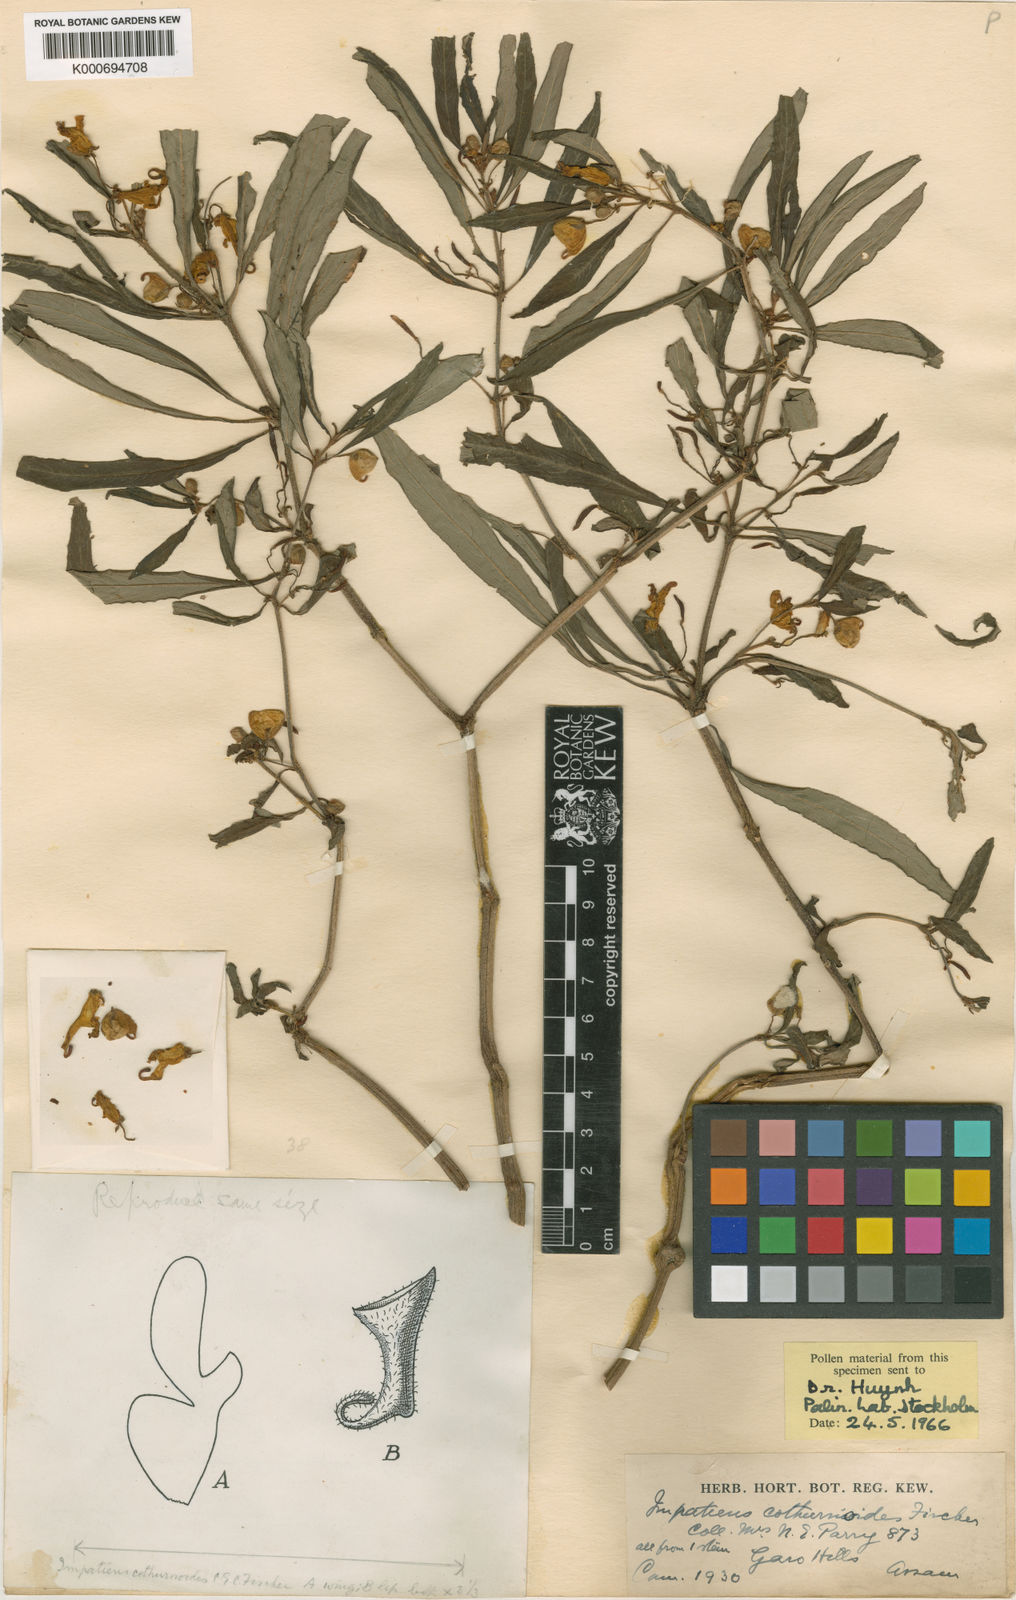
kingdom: Plantae
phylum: Tracheophyta
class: Magnoliopsida
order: Ericales
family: Balsaminaceae
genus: Impatiens
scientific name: Impatiens cothurnoides
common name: The garo balsam
